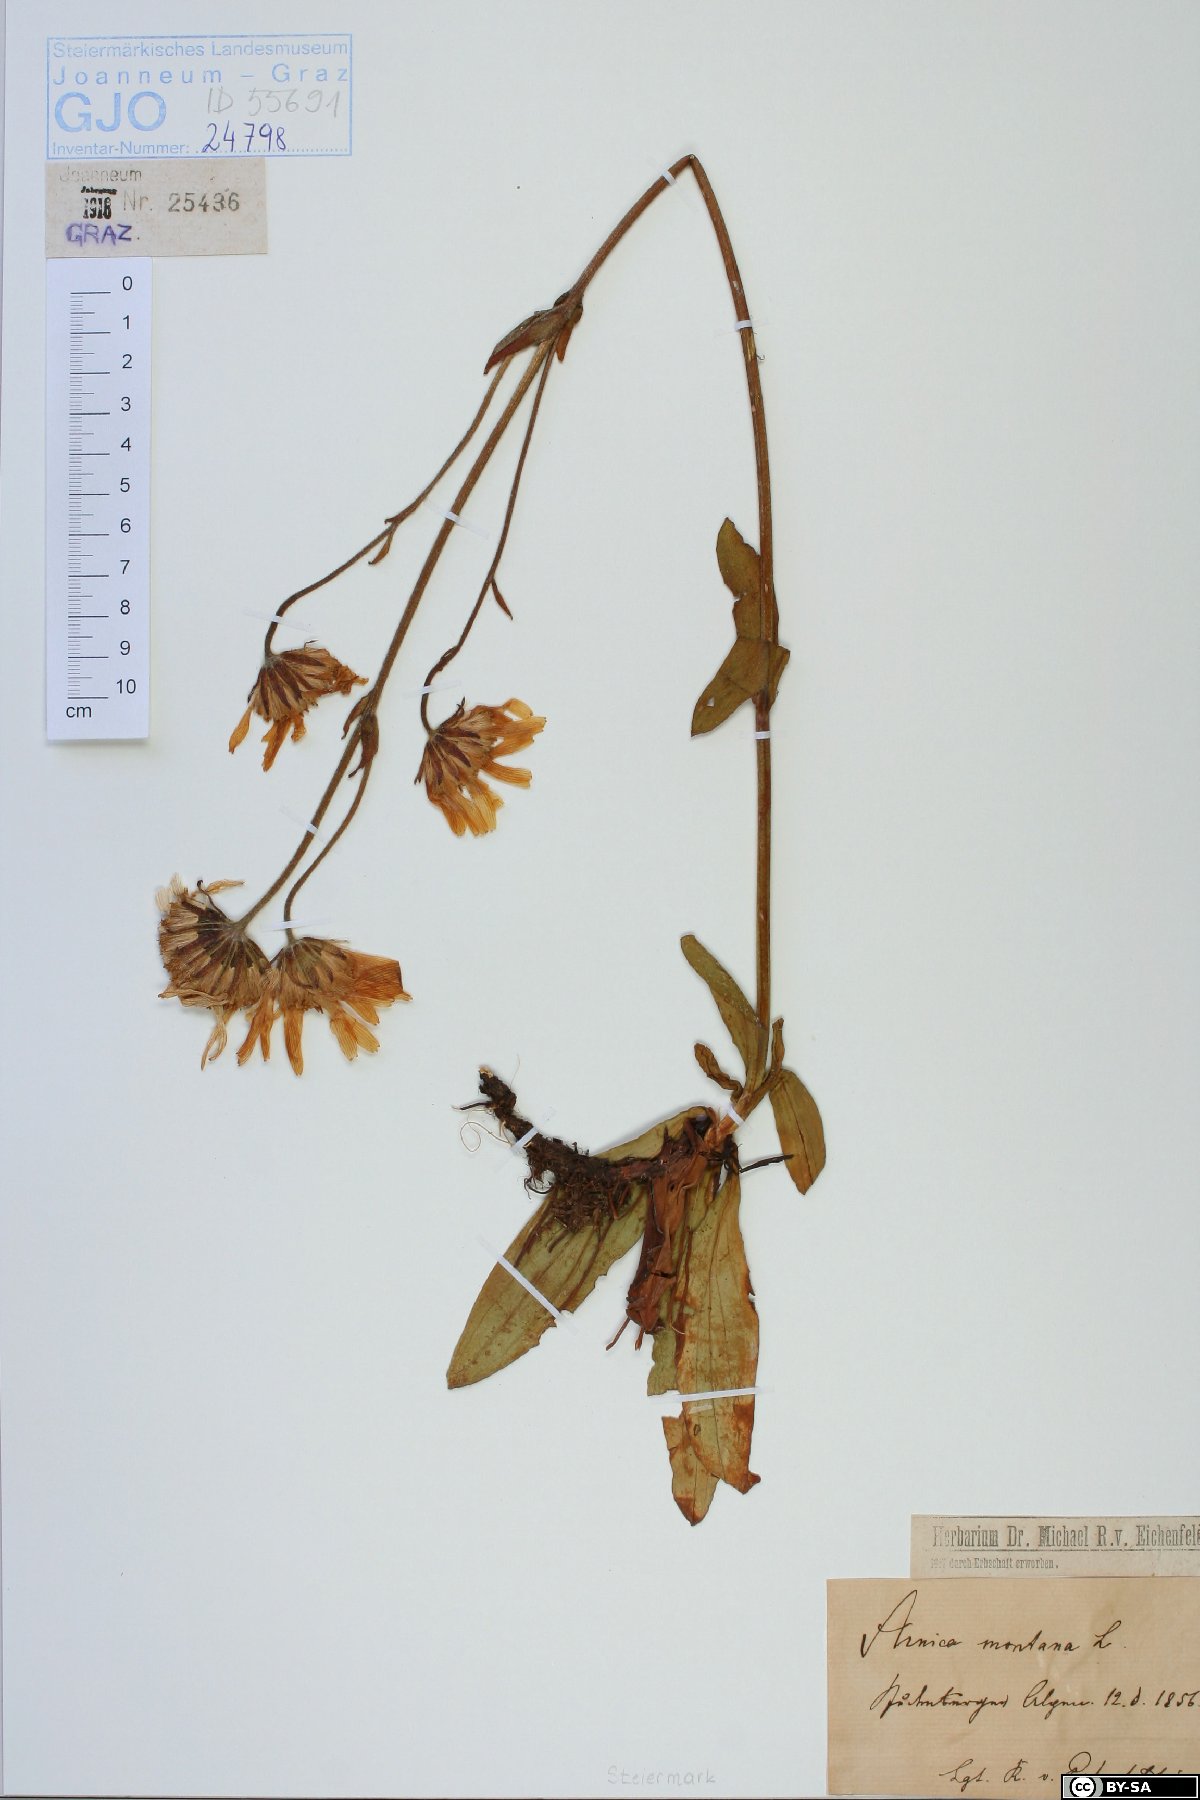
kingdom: Plantae
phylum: Tracheophyta
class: Magnoliopsida
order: Asterales
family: Asteraceae
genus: Arnica
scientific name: Arnica montana
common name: Leopard's bane
